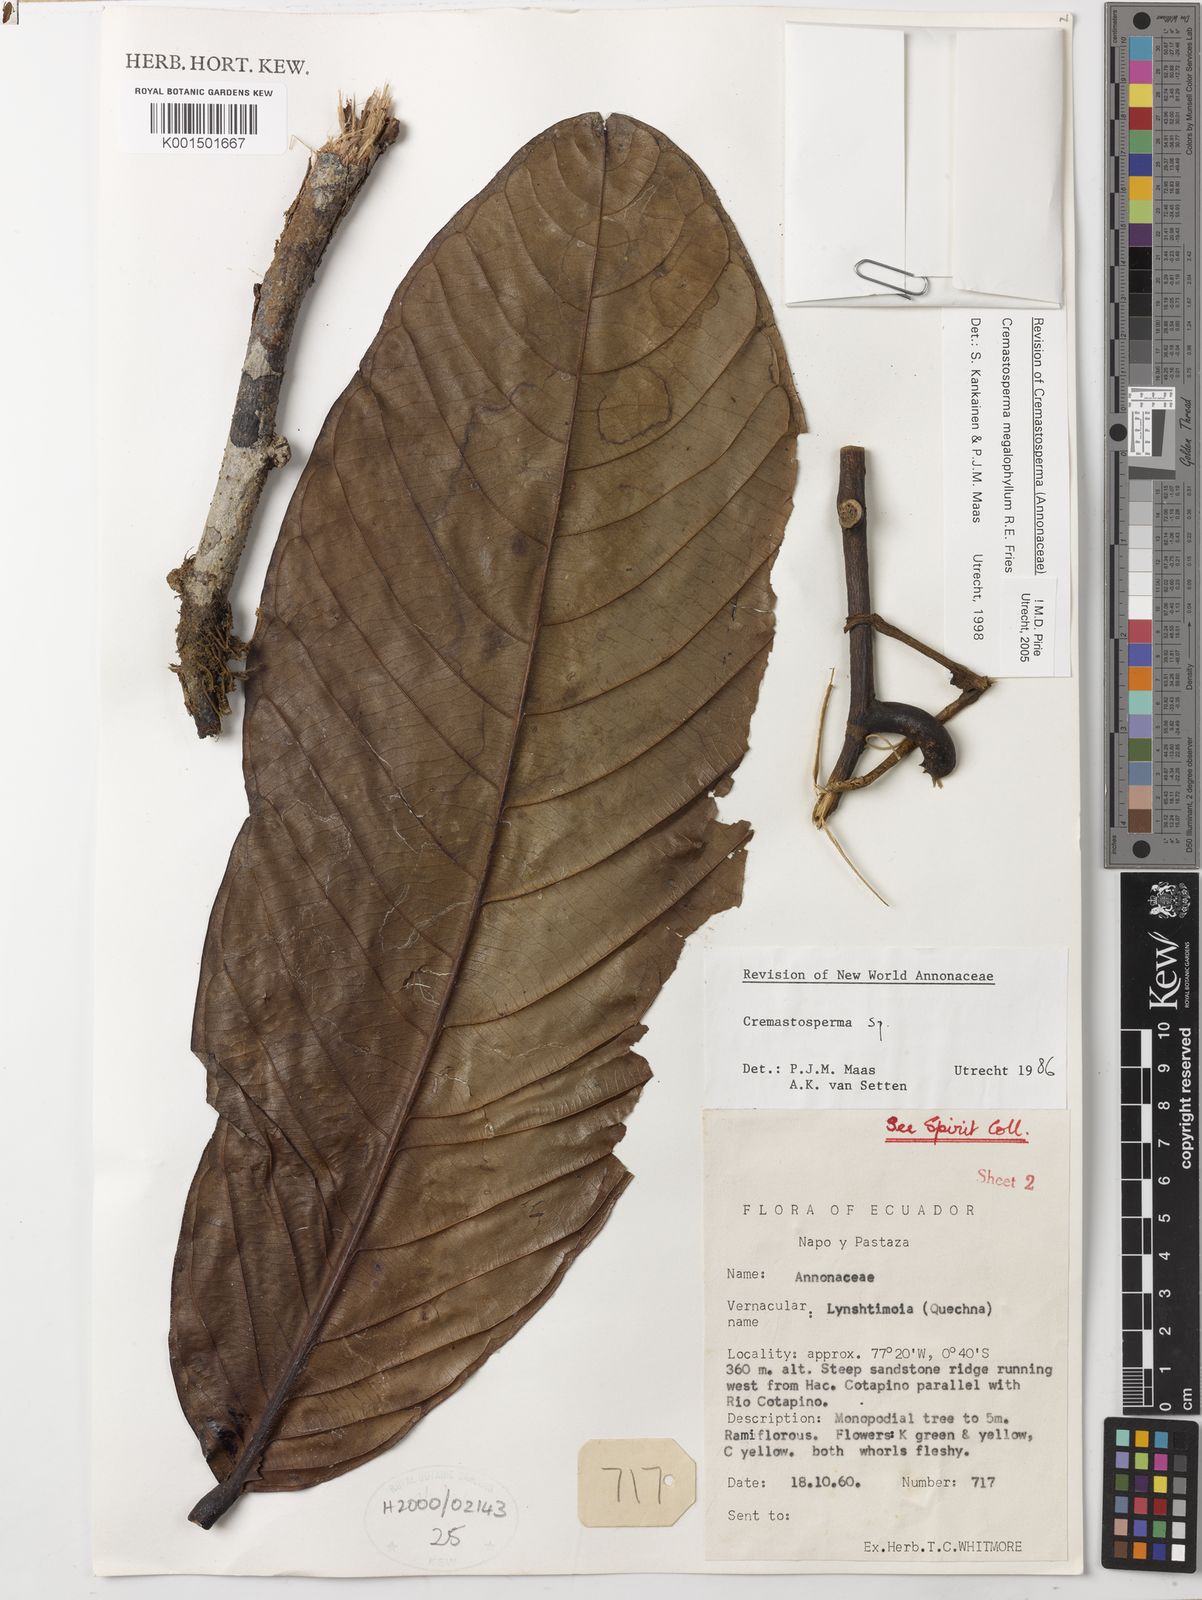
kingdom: Plantae
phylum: Tracheophyta
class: Magnoliopsida
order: Magnoliales
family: Annonaceae
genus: Cremastosperma
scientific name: Cremastosperma megalophyllum
